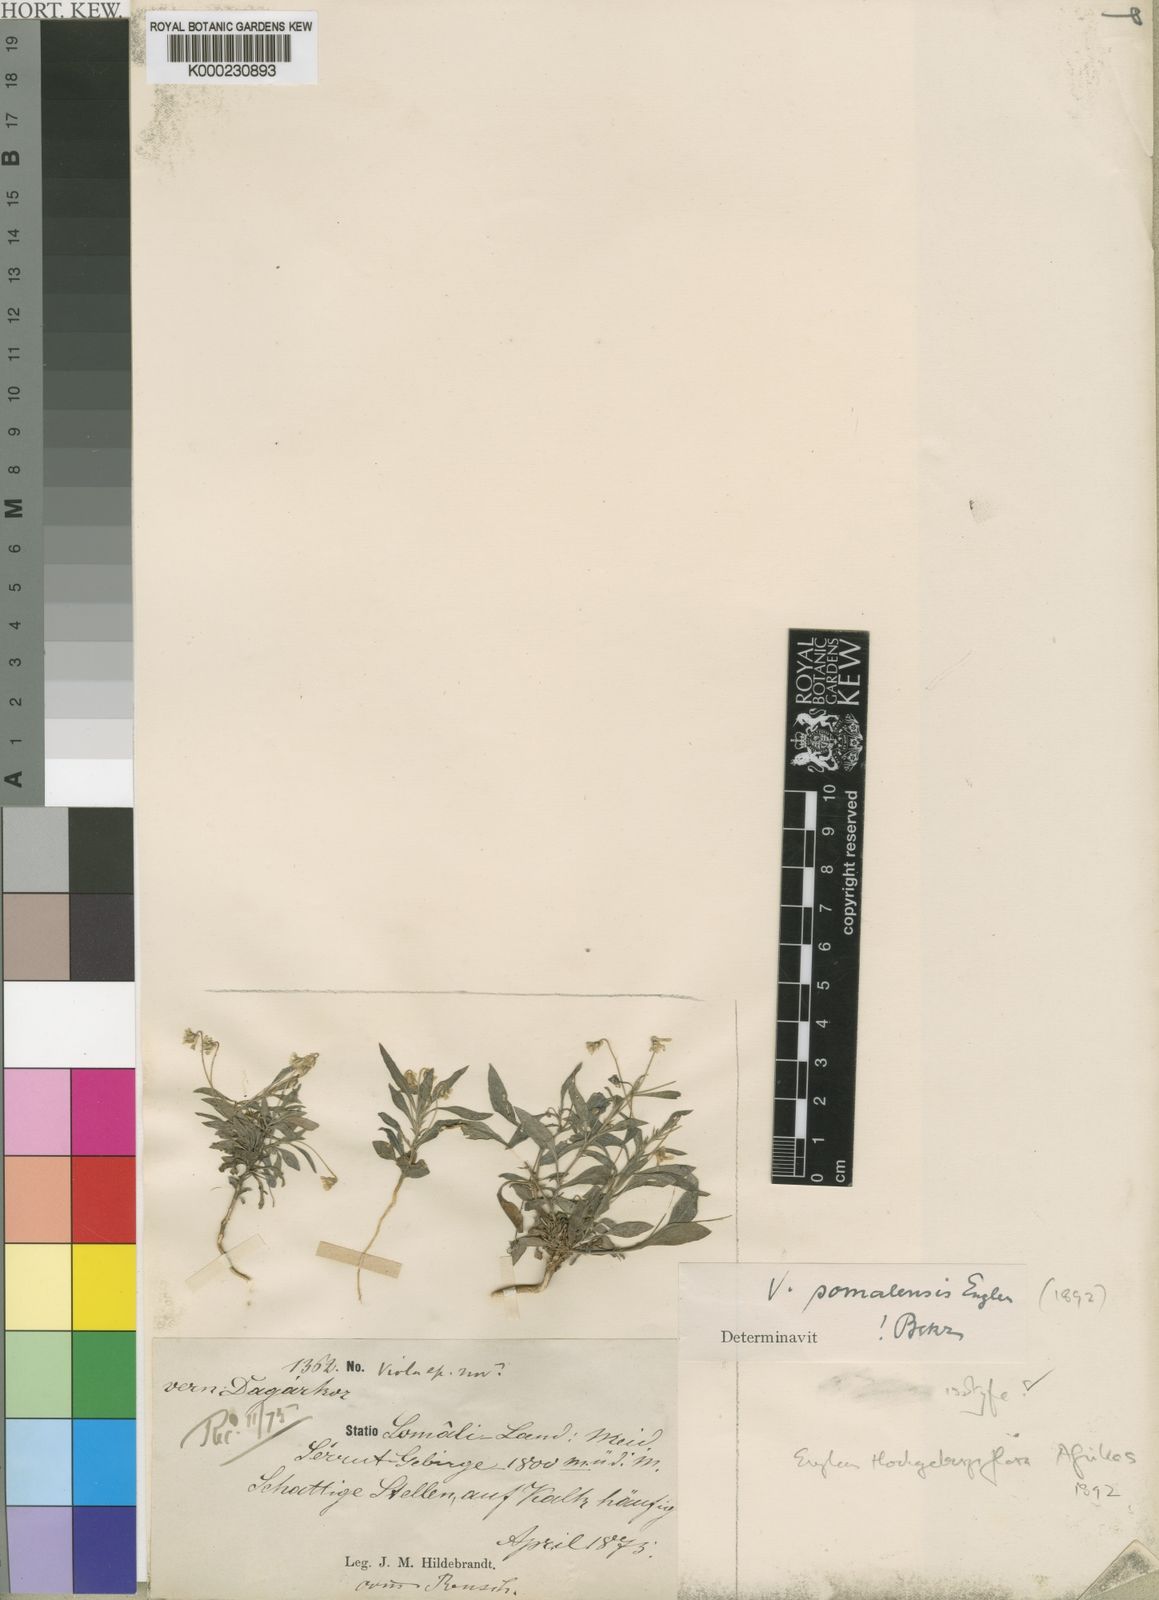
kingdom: Plantae
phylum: Tracheophyta
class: Magnoliopsida
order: Malpighiales
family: Violaceae
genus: Viola
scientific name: Viola
